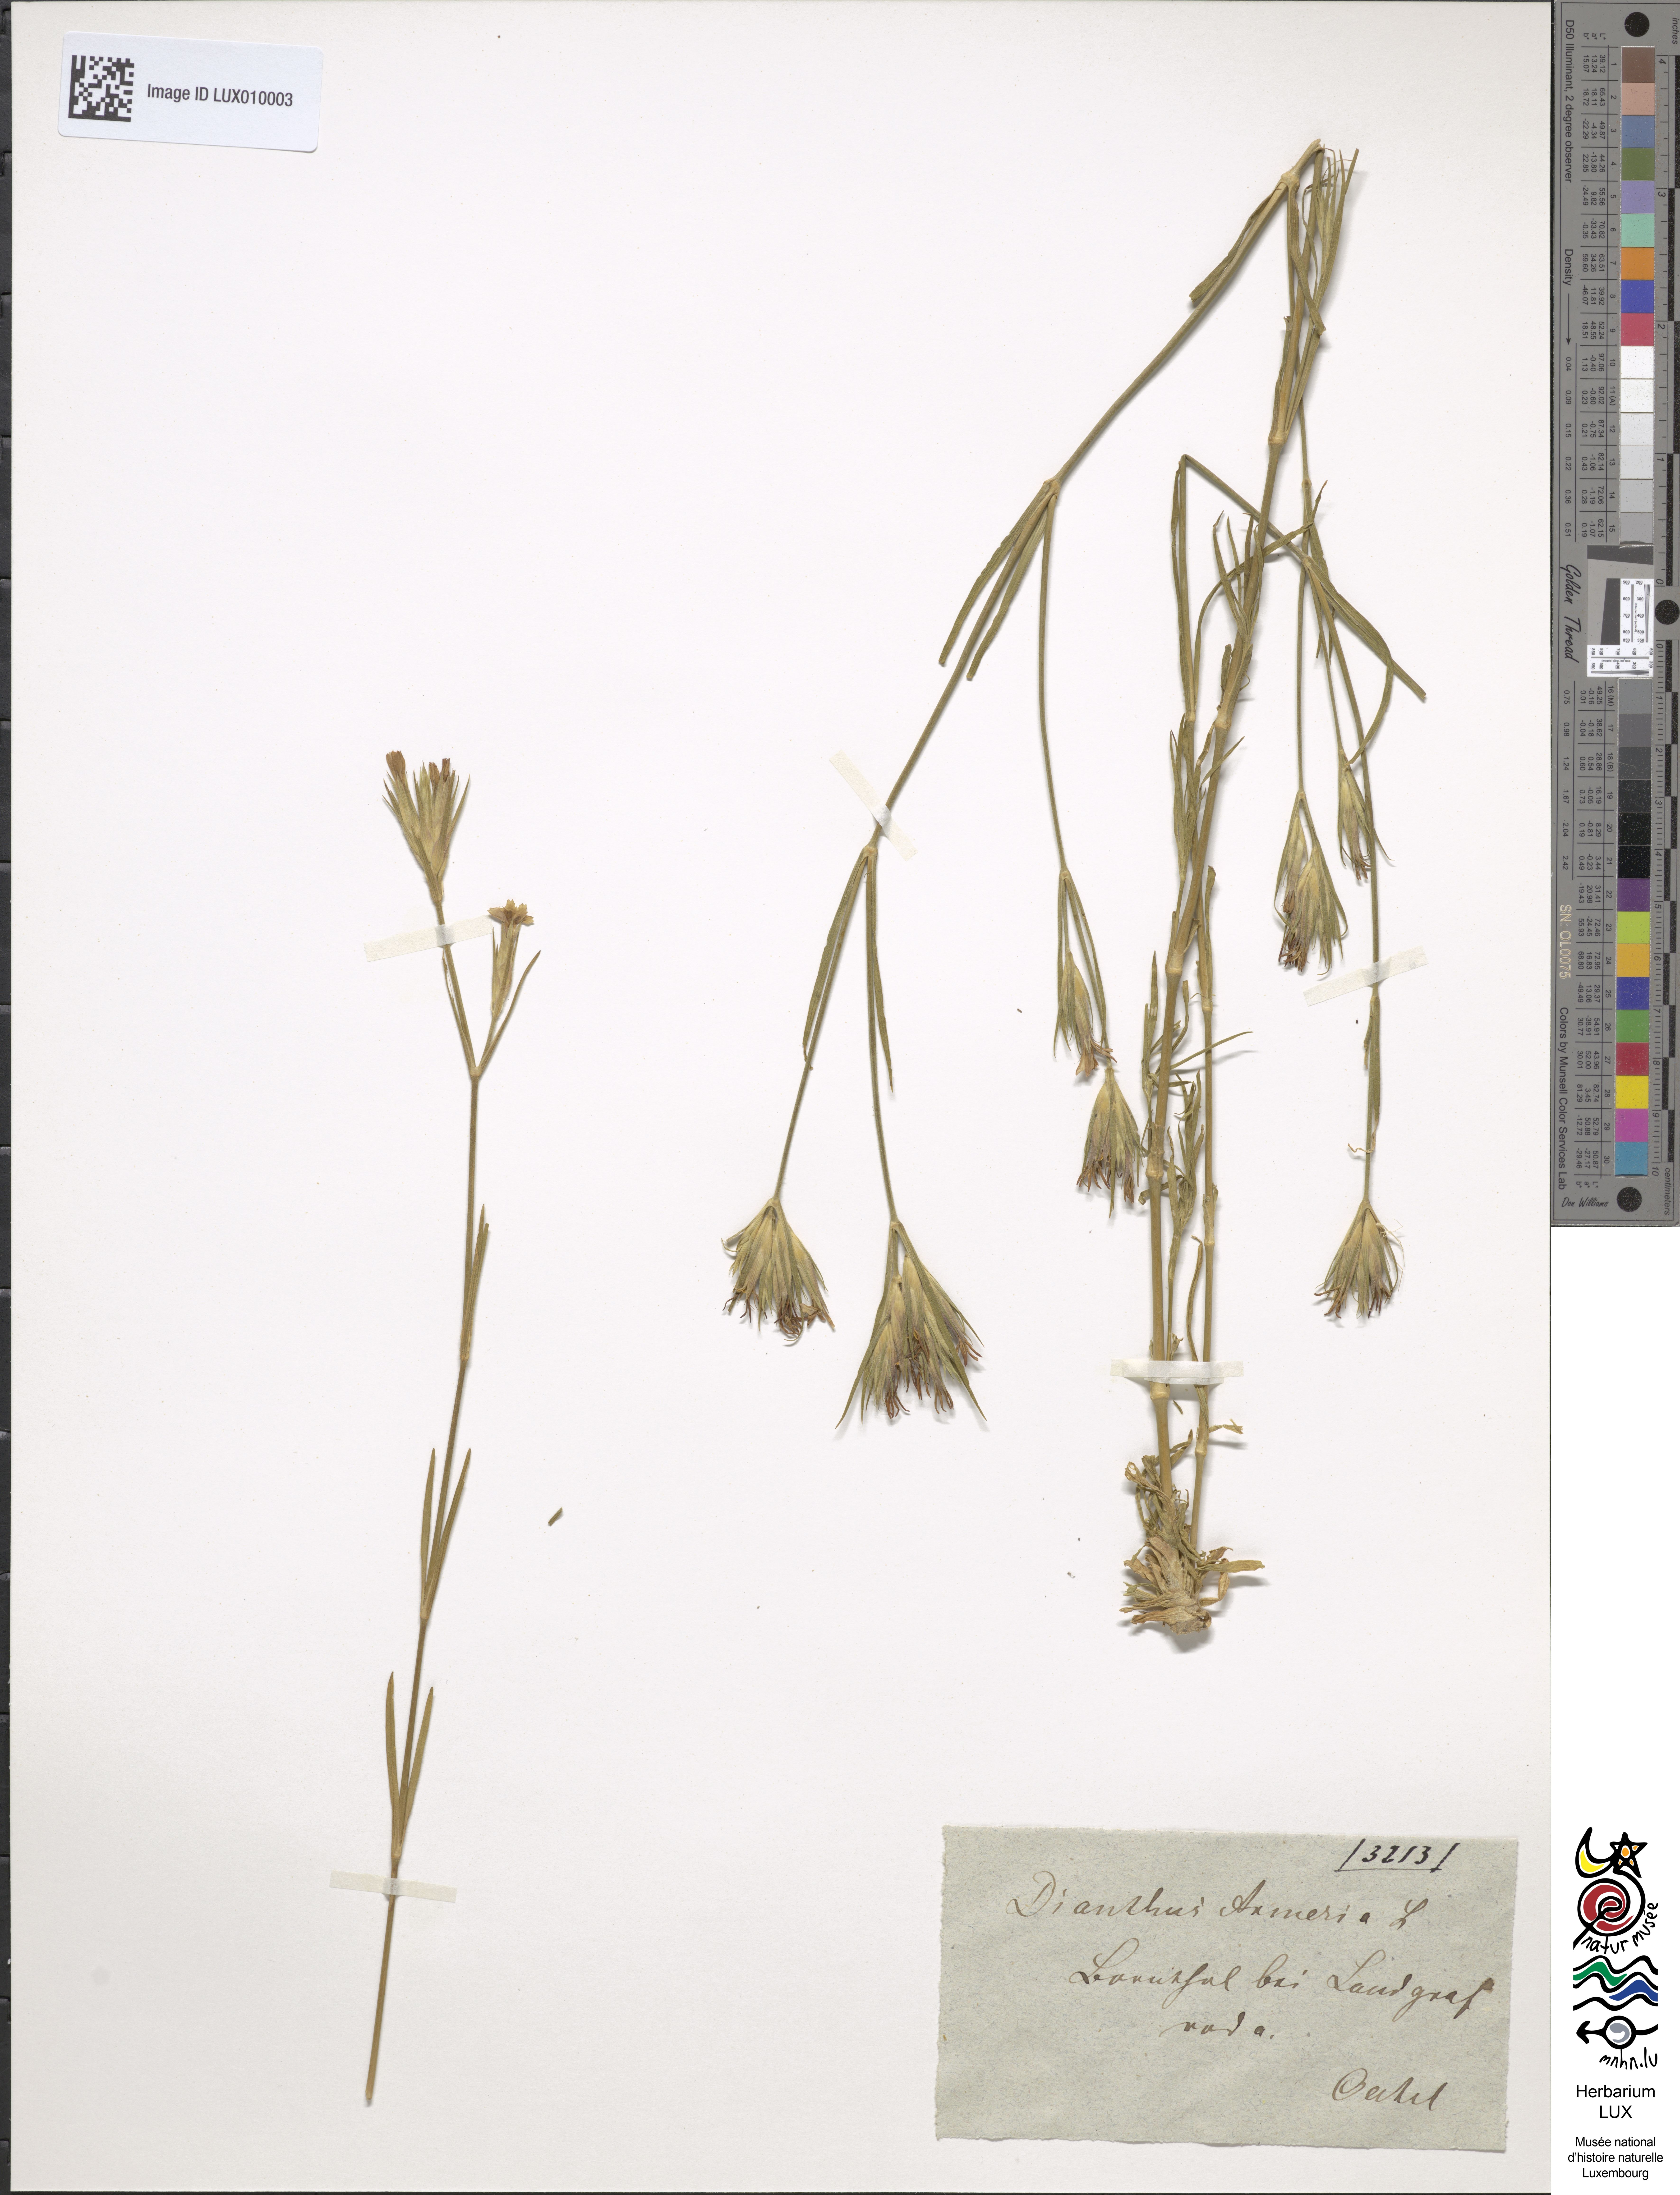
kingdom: Plantae
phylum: Tracheophyta
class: Magnoliopsida
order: Caryophyllales
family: Caryophyllaceae
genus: Dianthus
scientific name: Dianthus armeria
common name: Deptford pink
